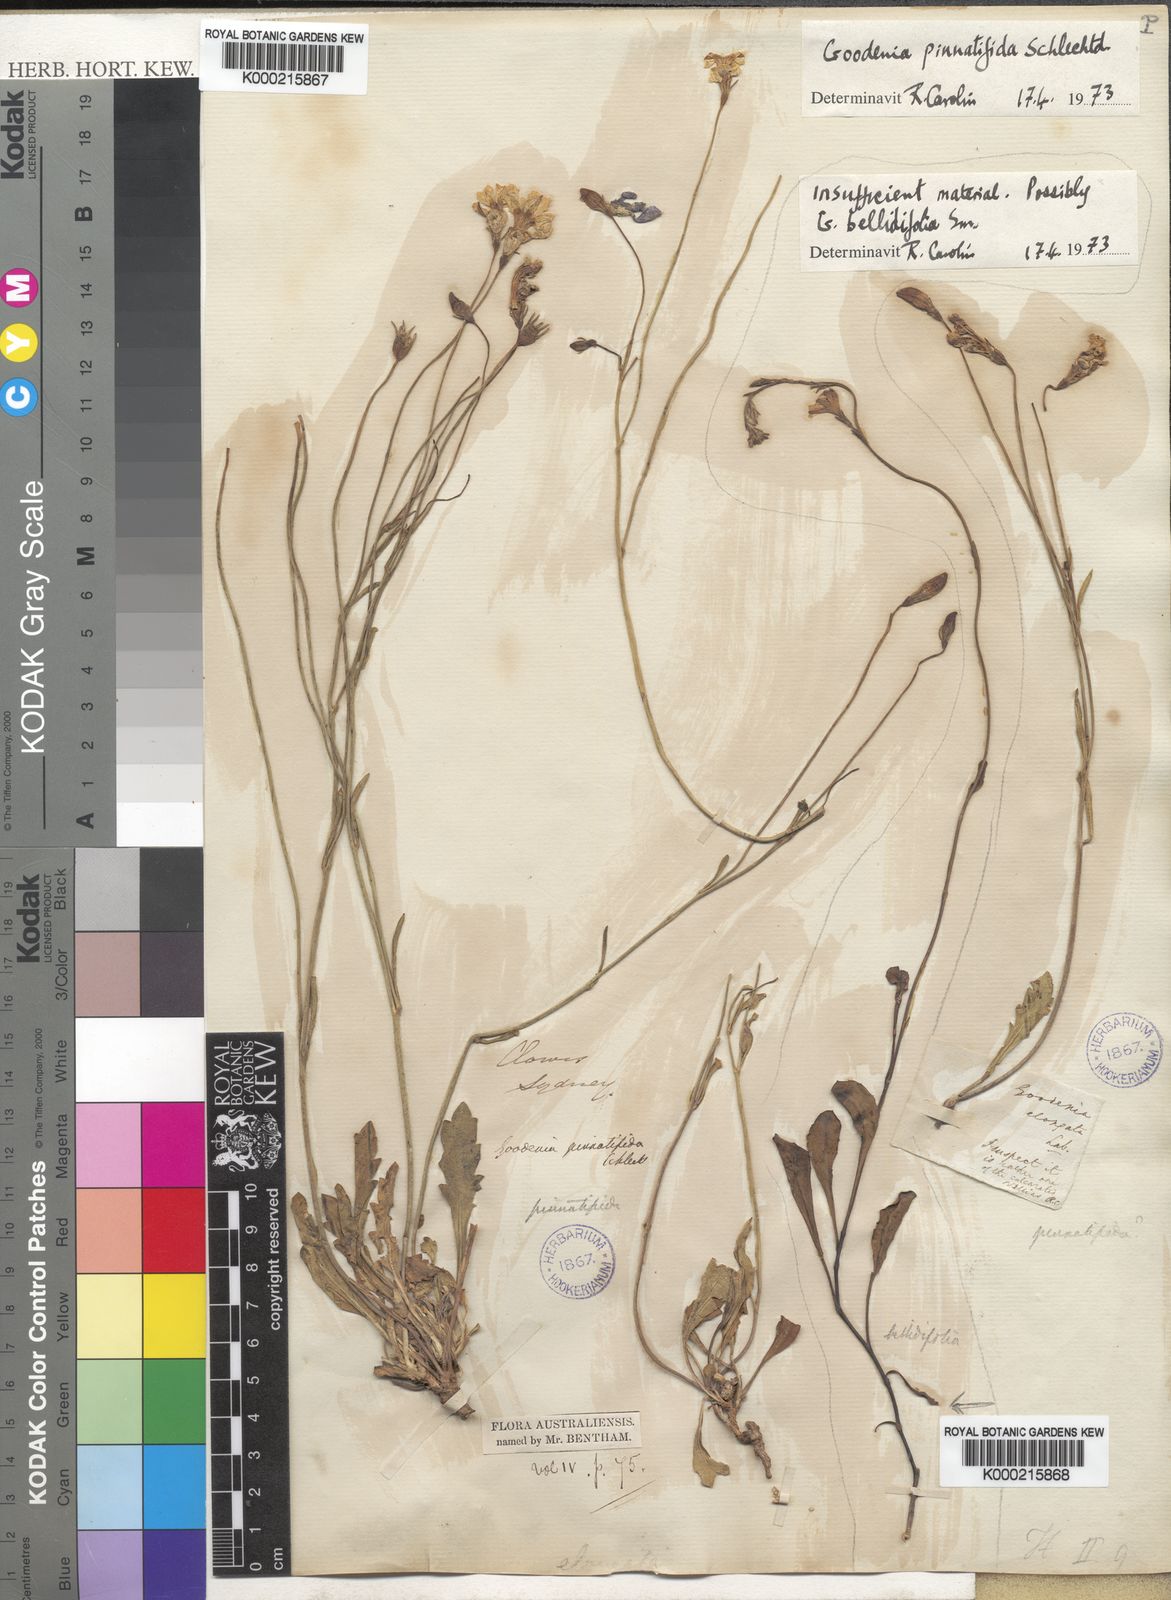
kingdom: Plantae
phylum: Tracheophyta
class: Magnoliopsida
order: Asterales
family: Goodeniaceae
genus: Goodenia
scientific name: Goodenia pinnatifida
